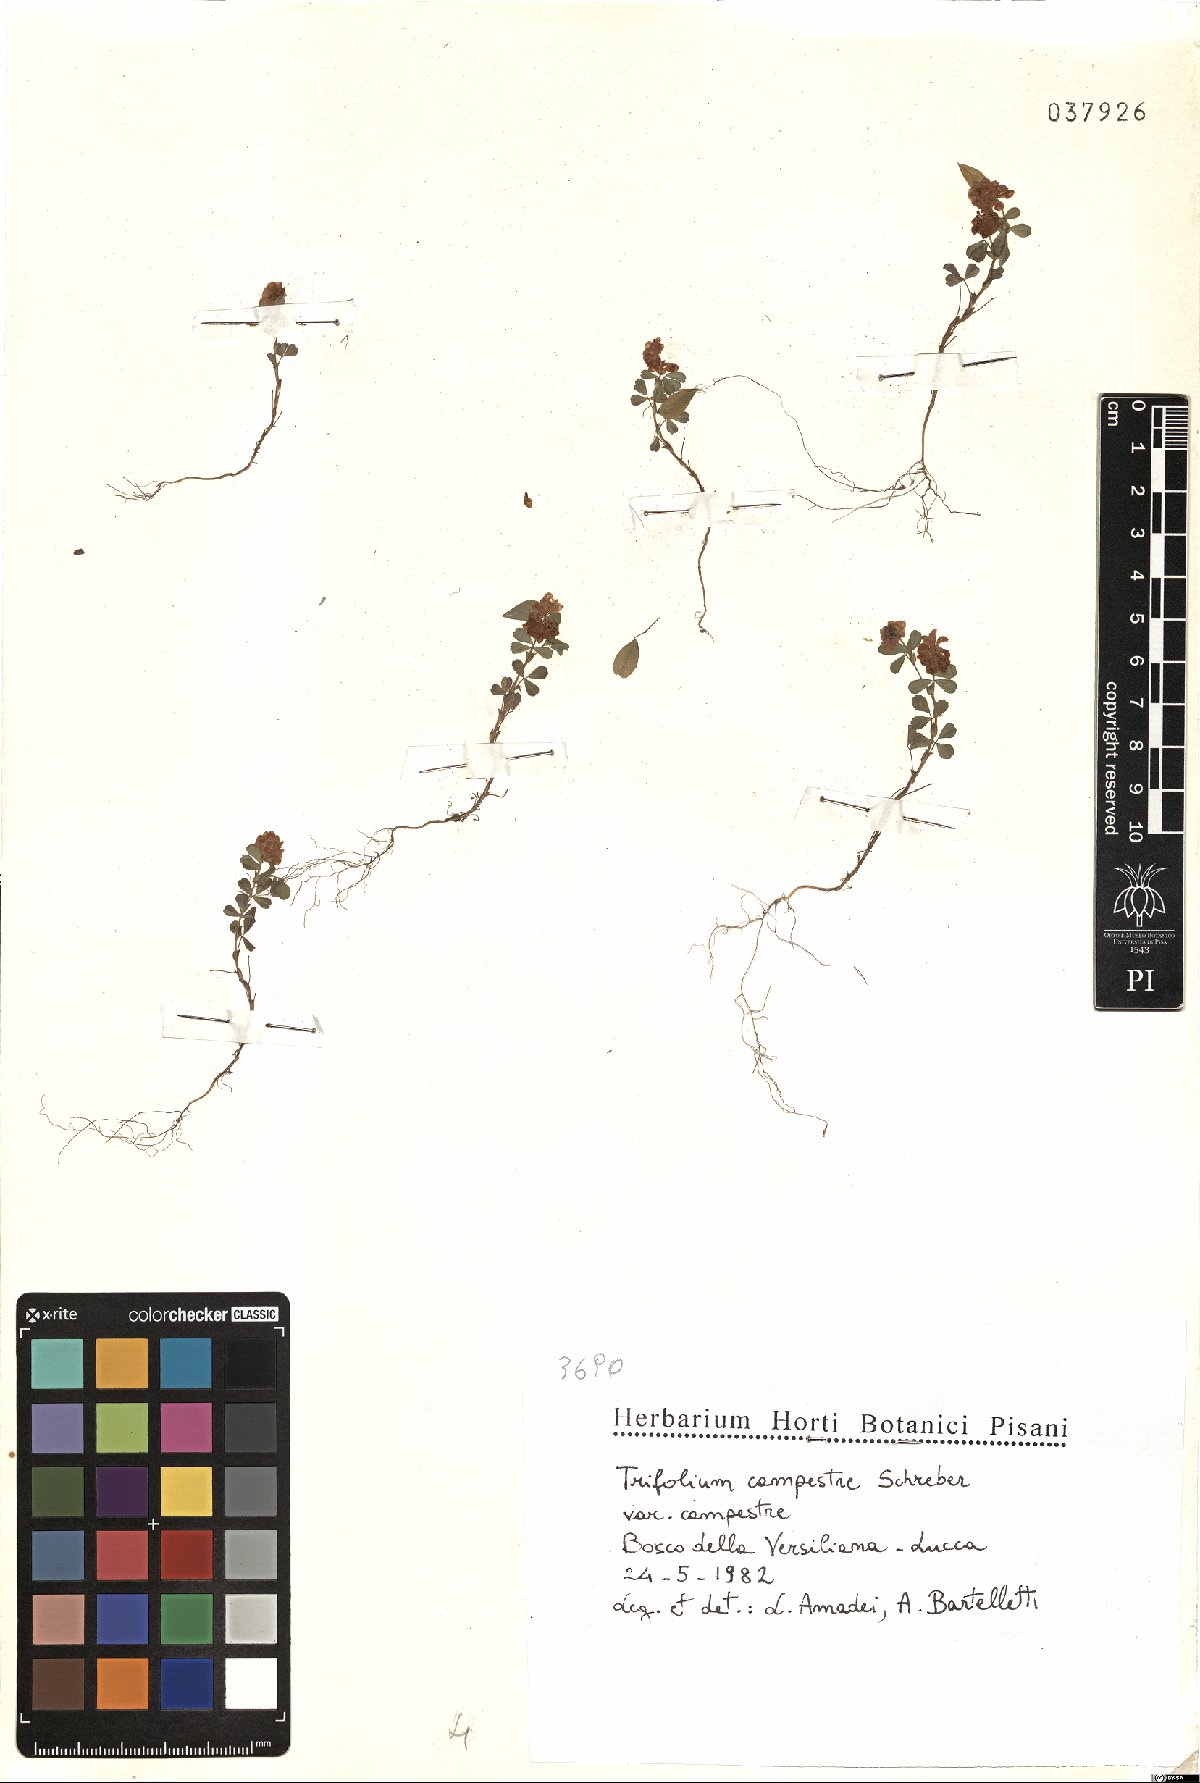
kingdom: Plantae
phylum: Tracheophyta
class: Magnoliopsida
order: Fabales
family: Fabaceae
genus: Trifolium
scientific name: Trifolium campestre
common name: Field clover
